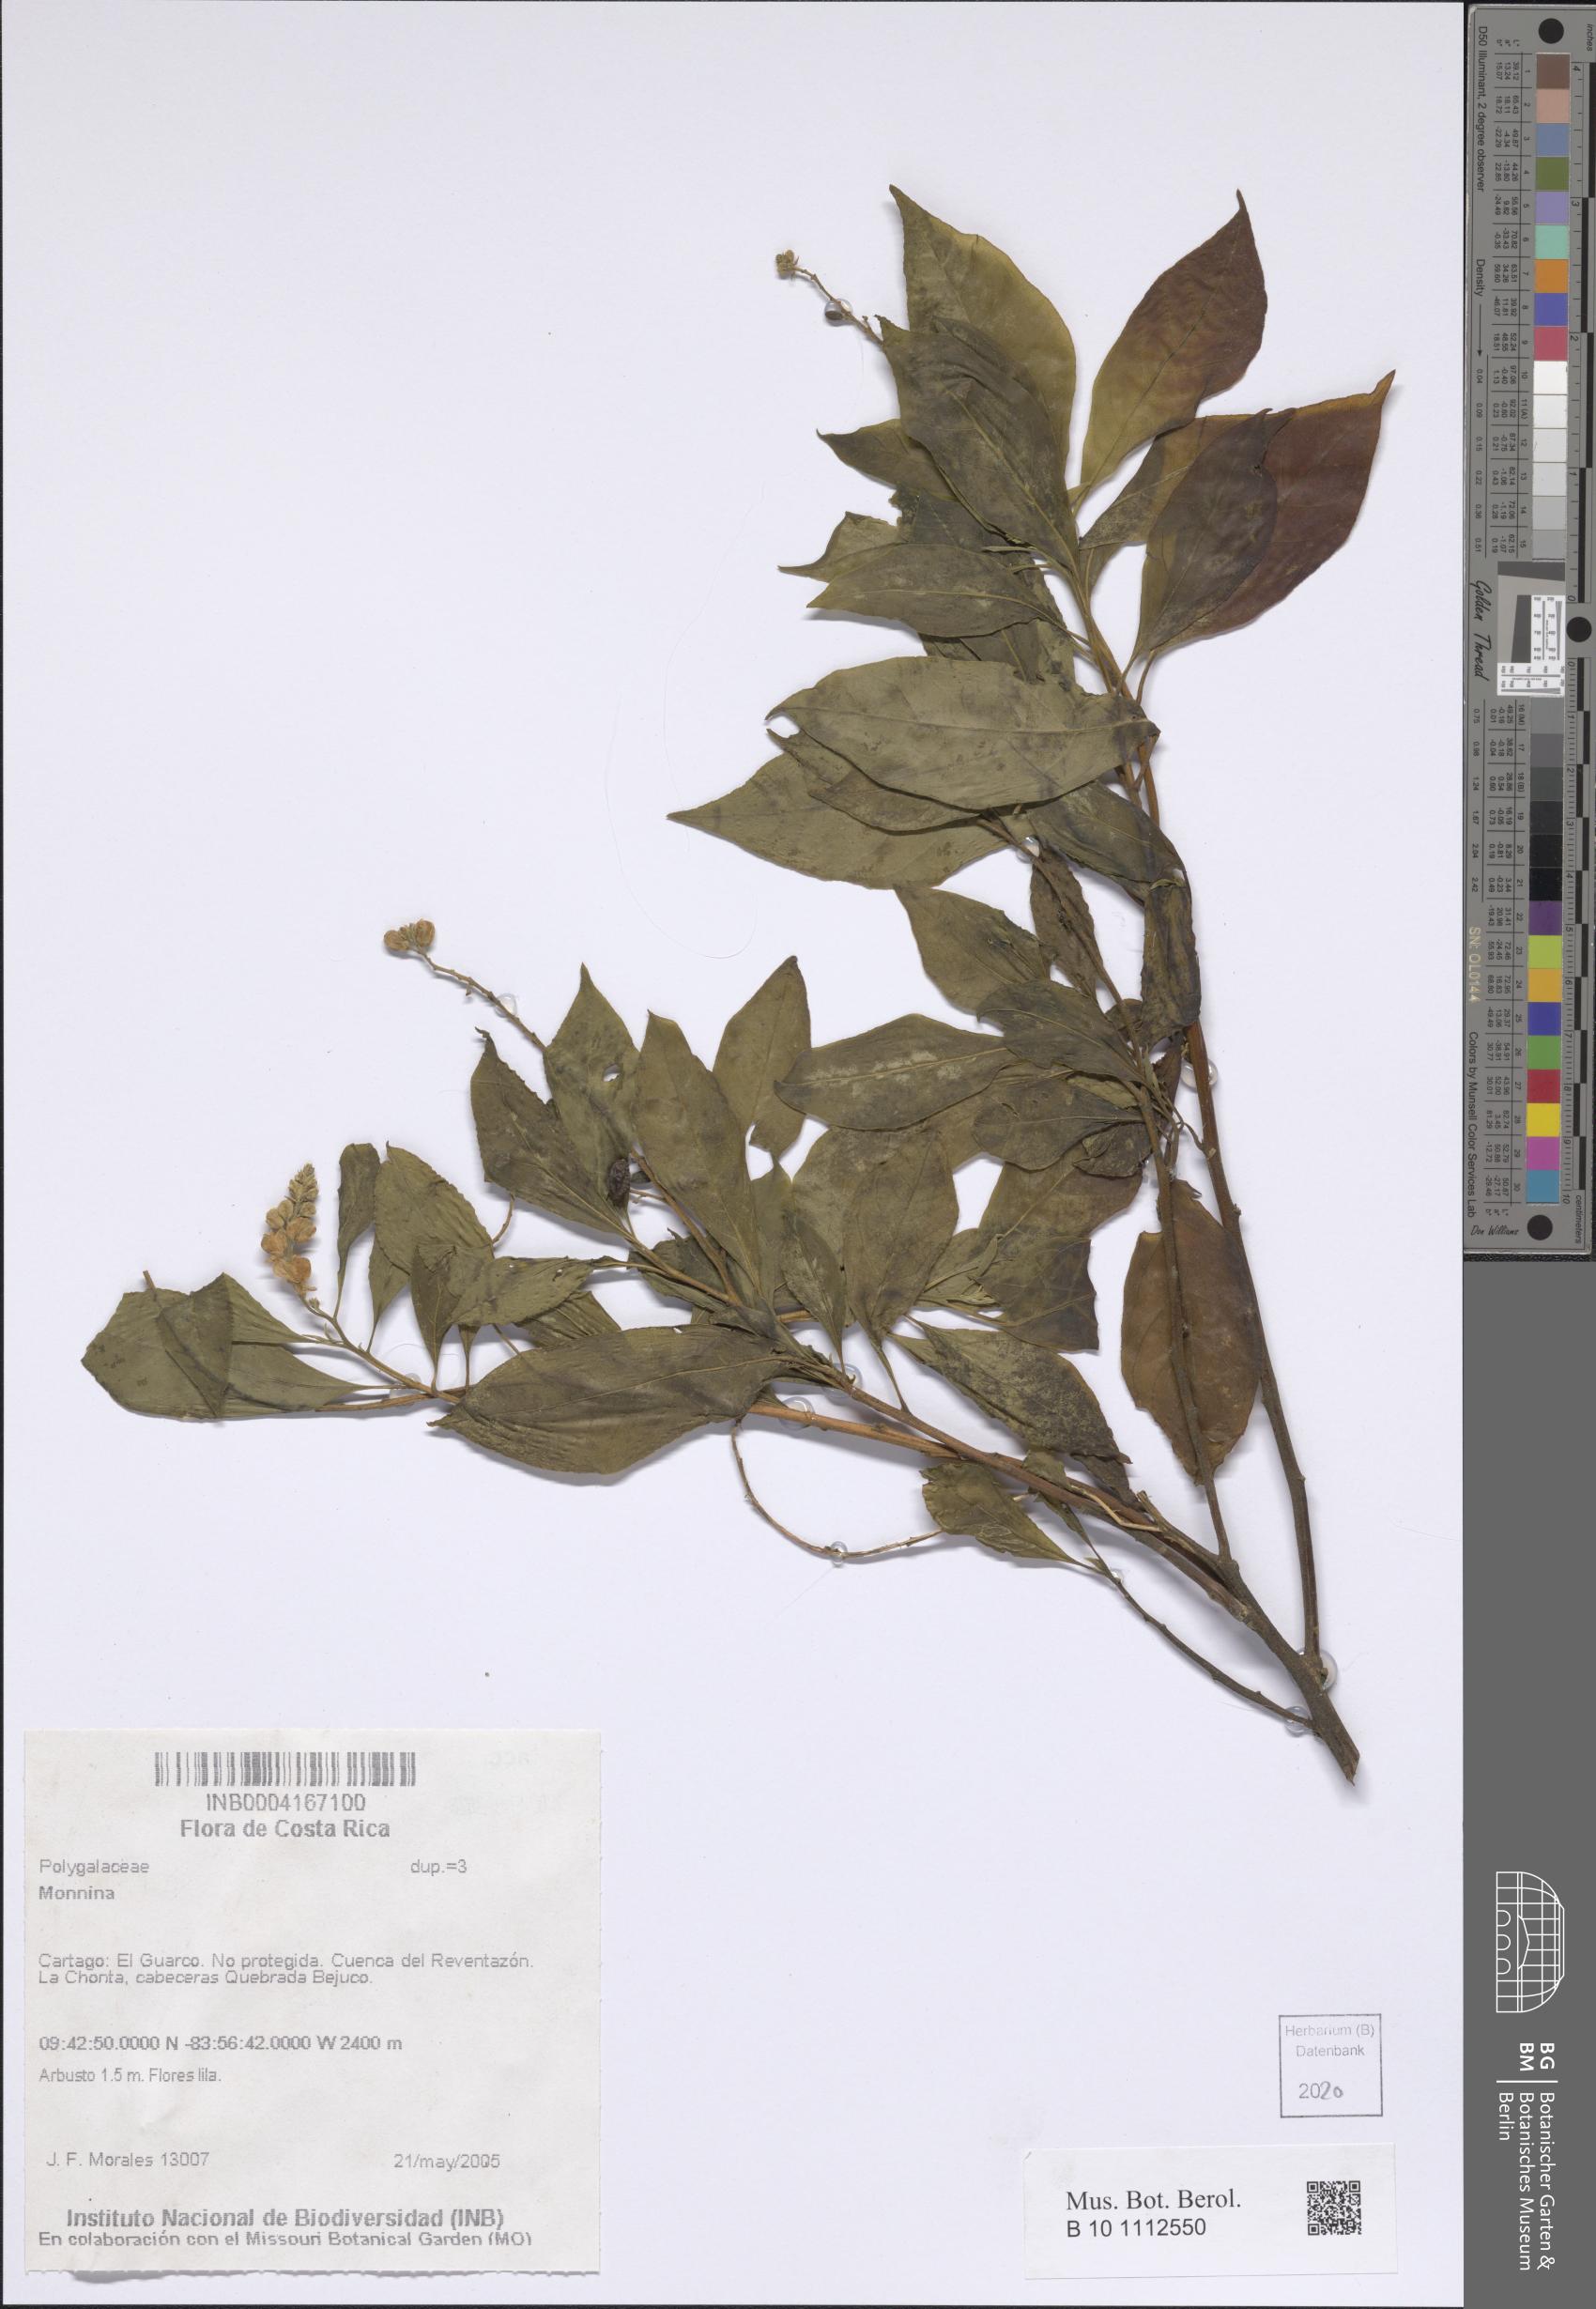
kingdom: Plantae
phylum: Tracheophyta
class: Magnoliopsida
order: Fabales
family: Polygalaceae
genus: Monnina
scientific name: Monnina
